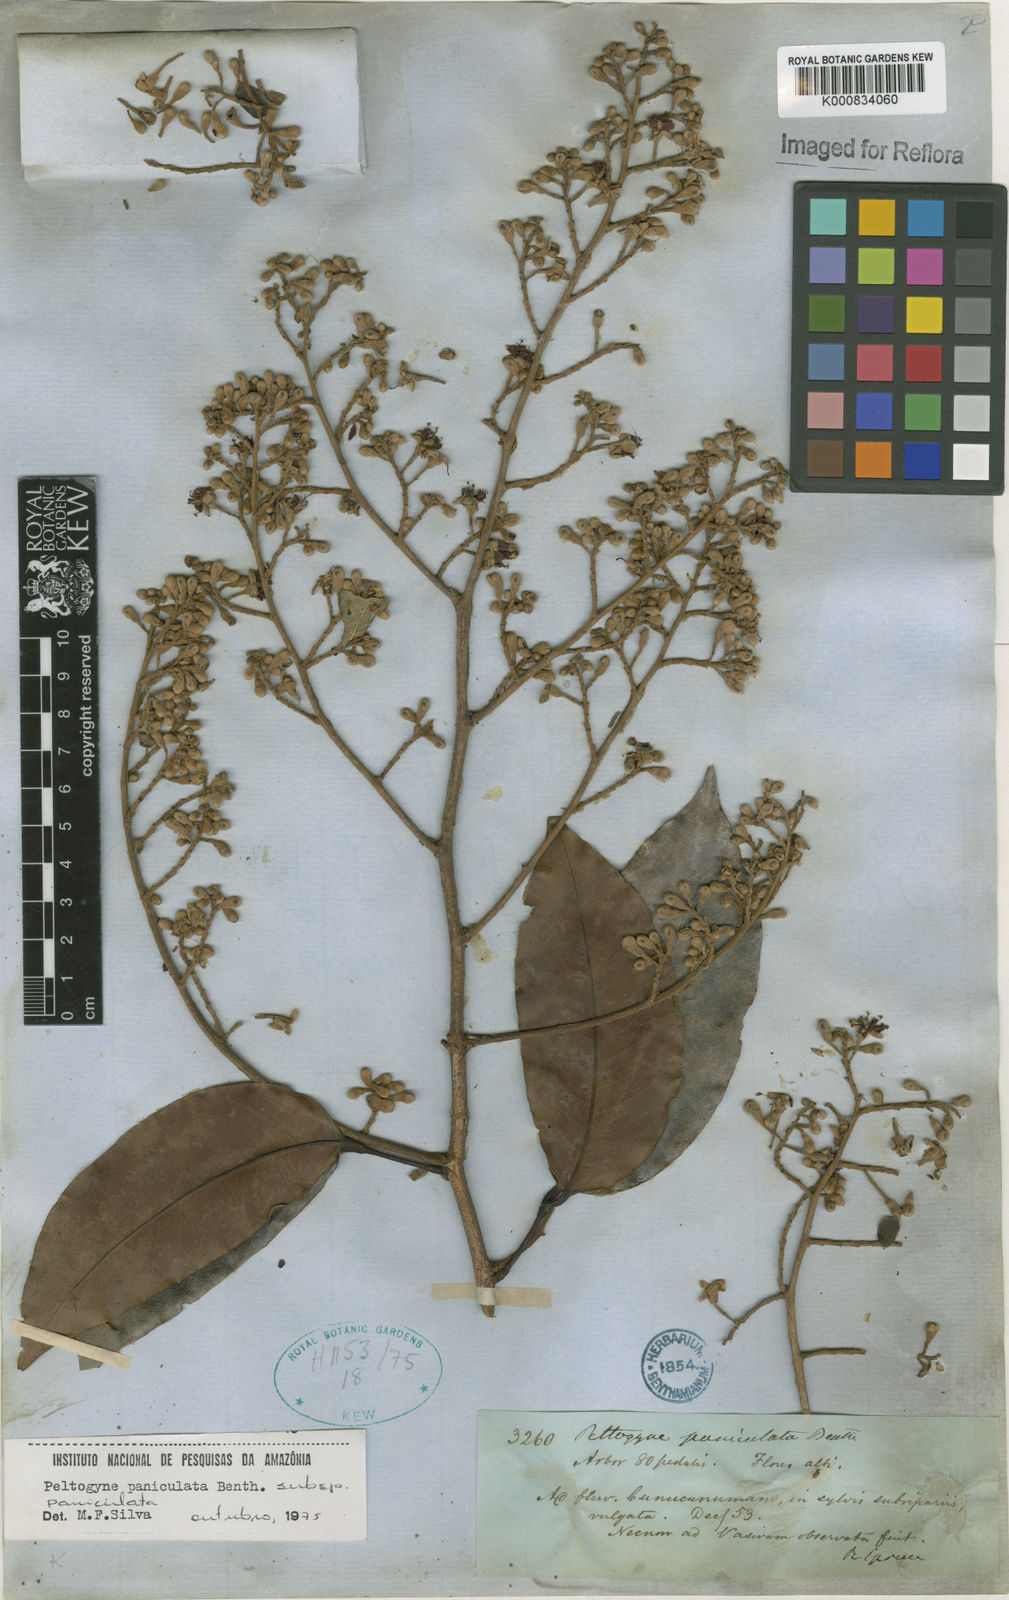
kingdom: Plantae
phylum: Tracheophyta
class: Magnoliopsida
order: Fabales
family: Fabaceae
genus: Peltogyne
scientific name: Peltogyne paniculata
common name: Purpleheart
